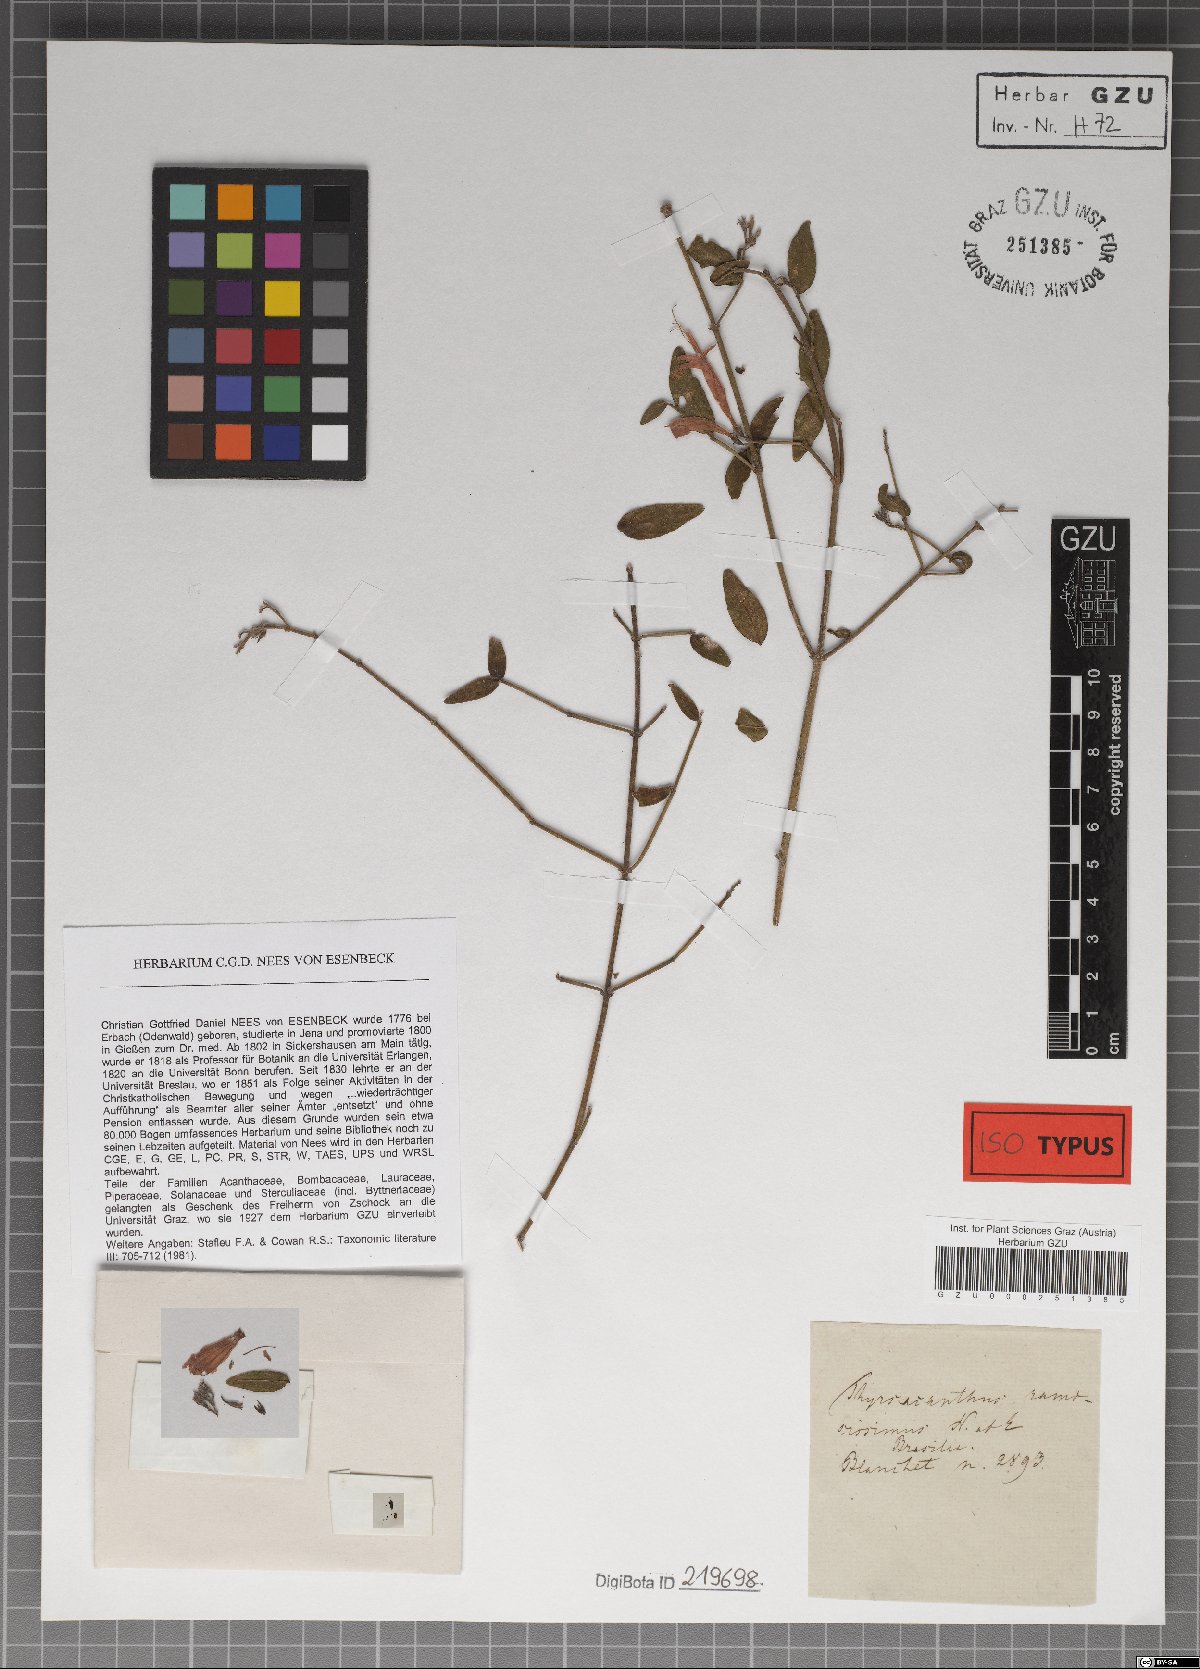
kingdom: Plantae
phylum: Tracheophyta
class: Magnoliopsida
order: Lamiales
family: Acanthaceae
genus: Thyrsacanthus
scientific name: Thyrsacanthus ramosissimus
